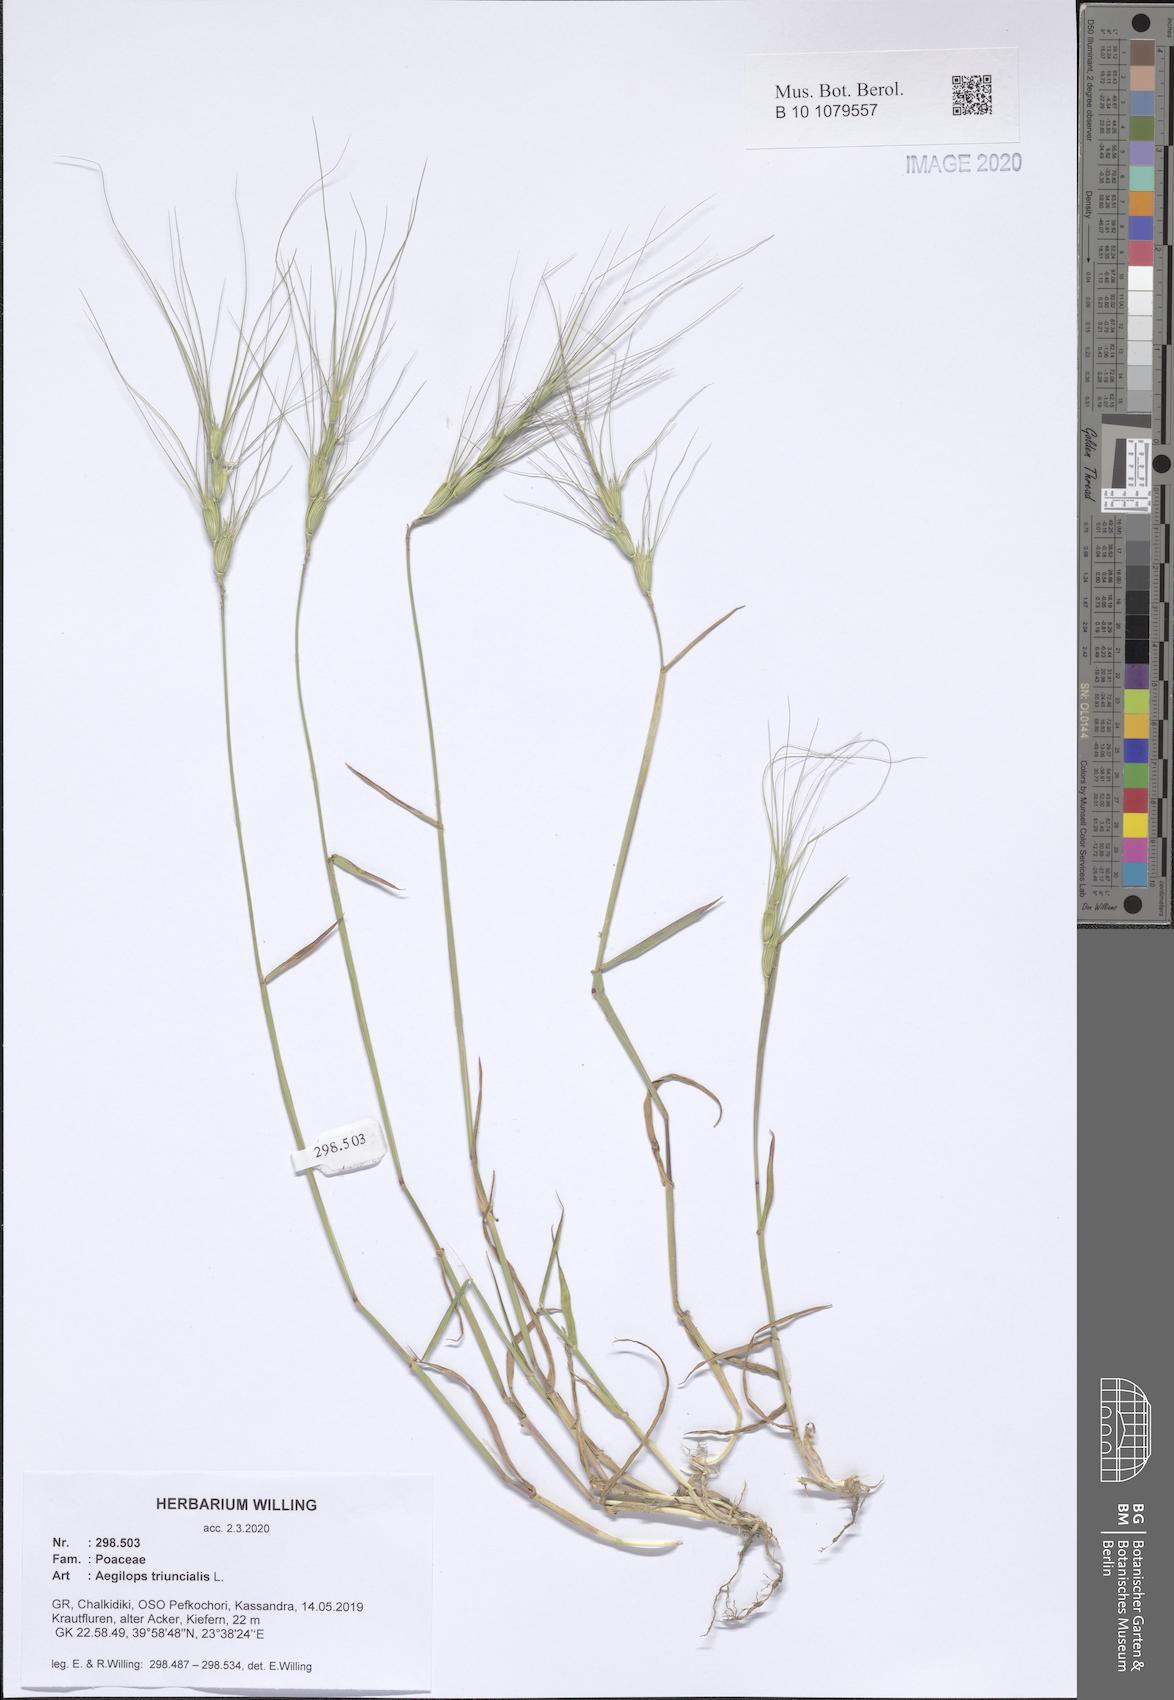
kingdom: Plantae
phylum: Tracheophyta
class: Liliopsida
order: Poales
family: Poaceae
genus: Aegilops
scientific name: Aegilops triuncialis
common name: Barb goat grass
